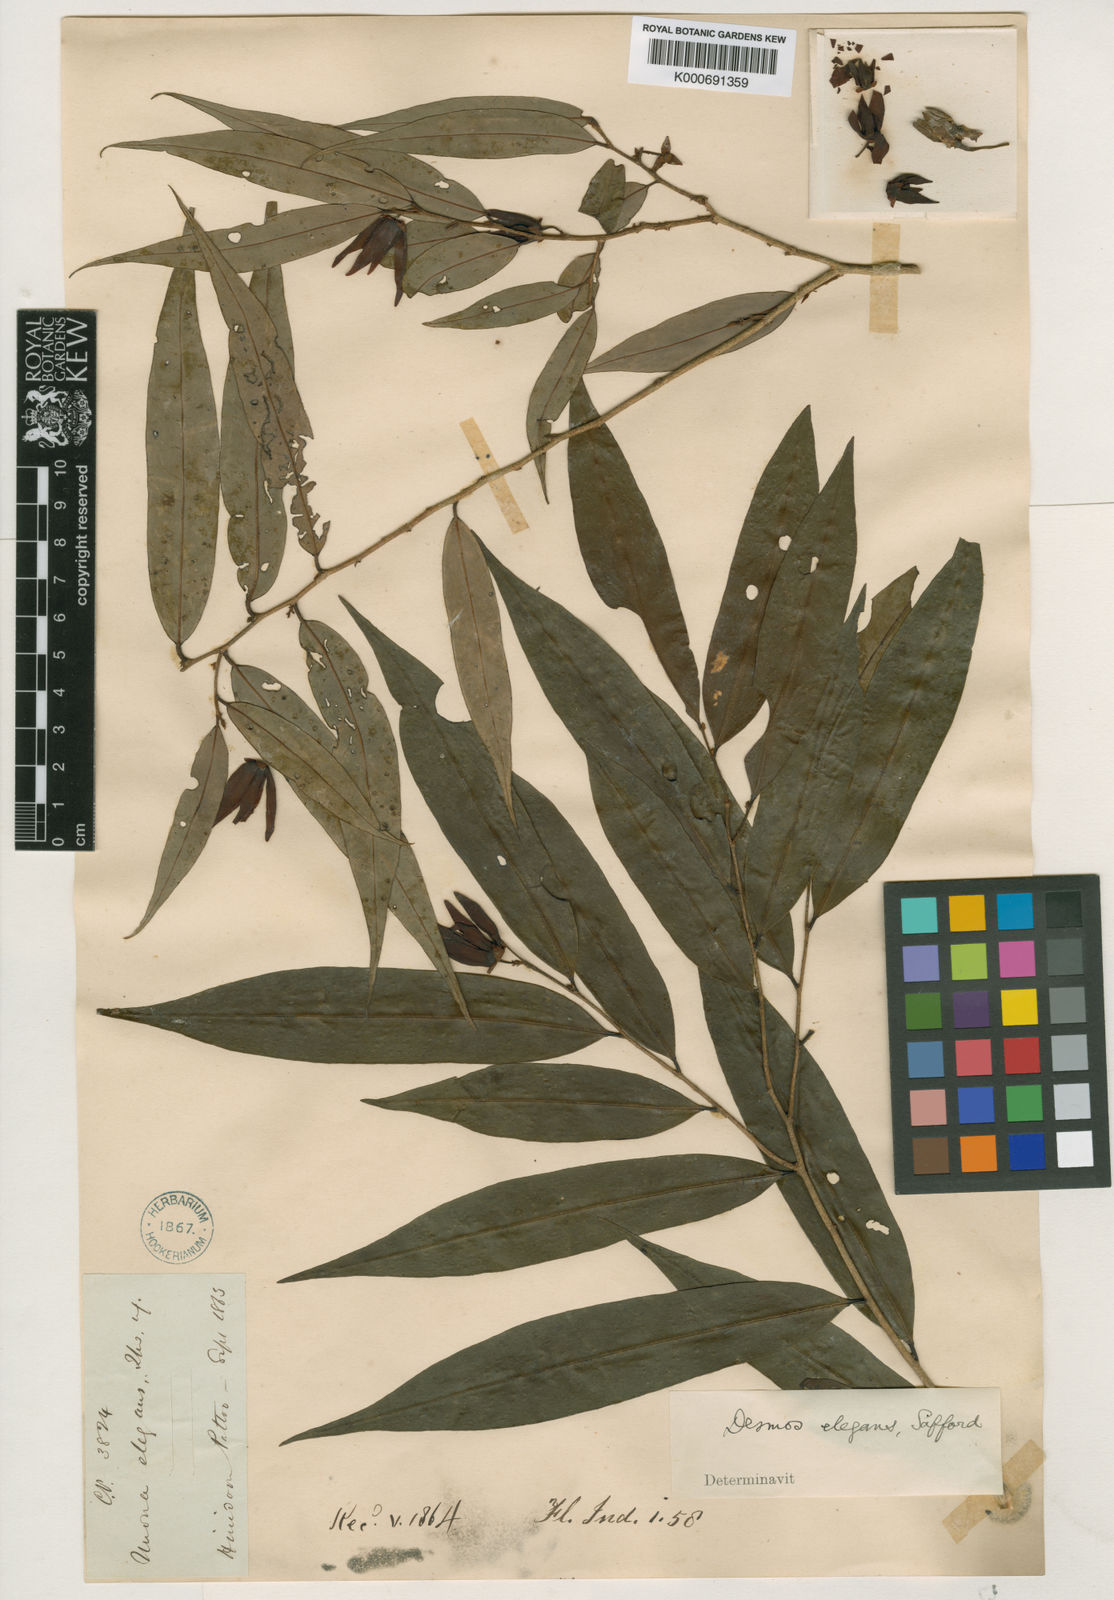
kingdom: Plantae
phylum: Tracheophyta
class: Magnoliopsida
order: Magnoliales
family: Annonaceae
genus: Desmos
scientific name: Desmos elegans
